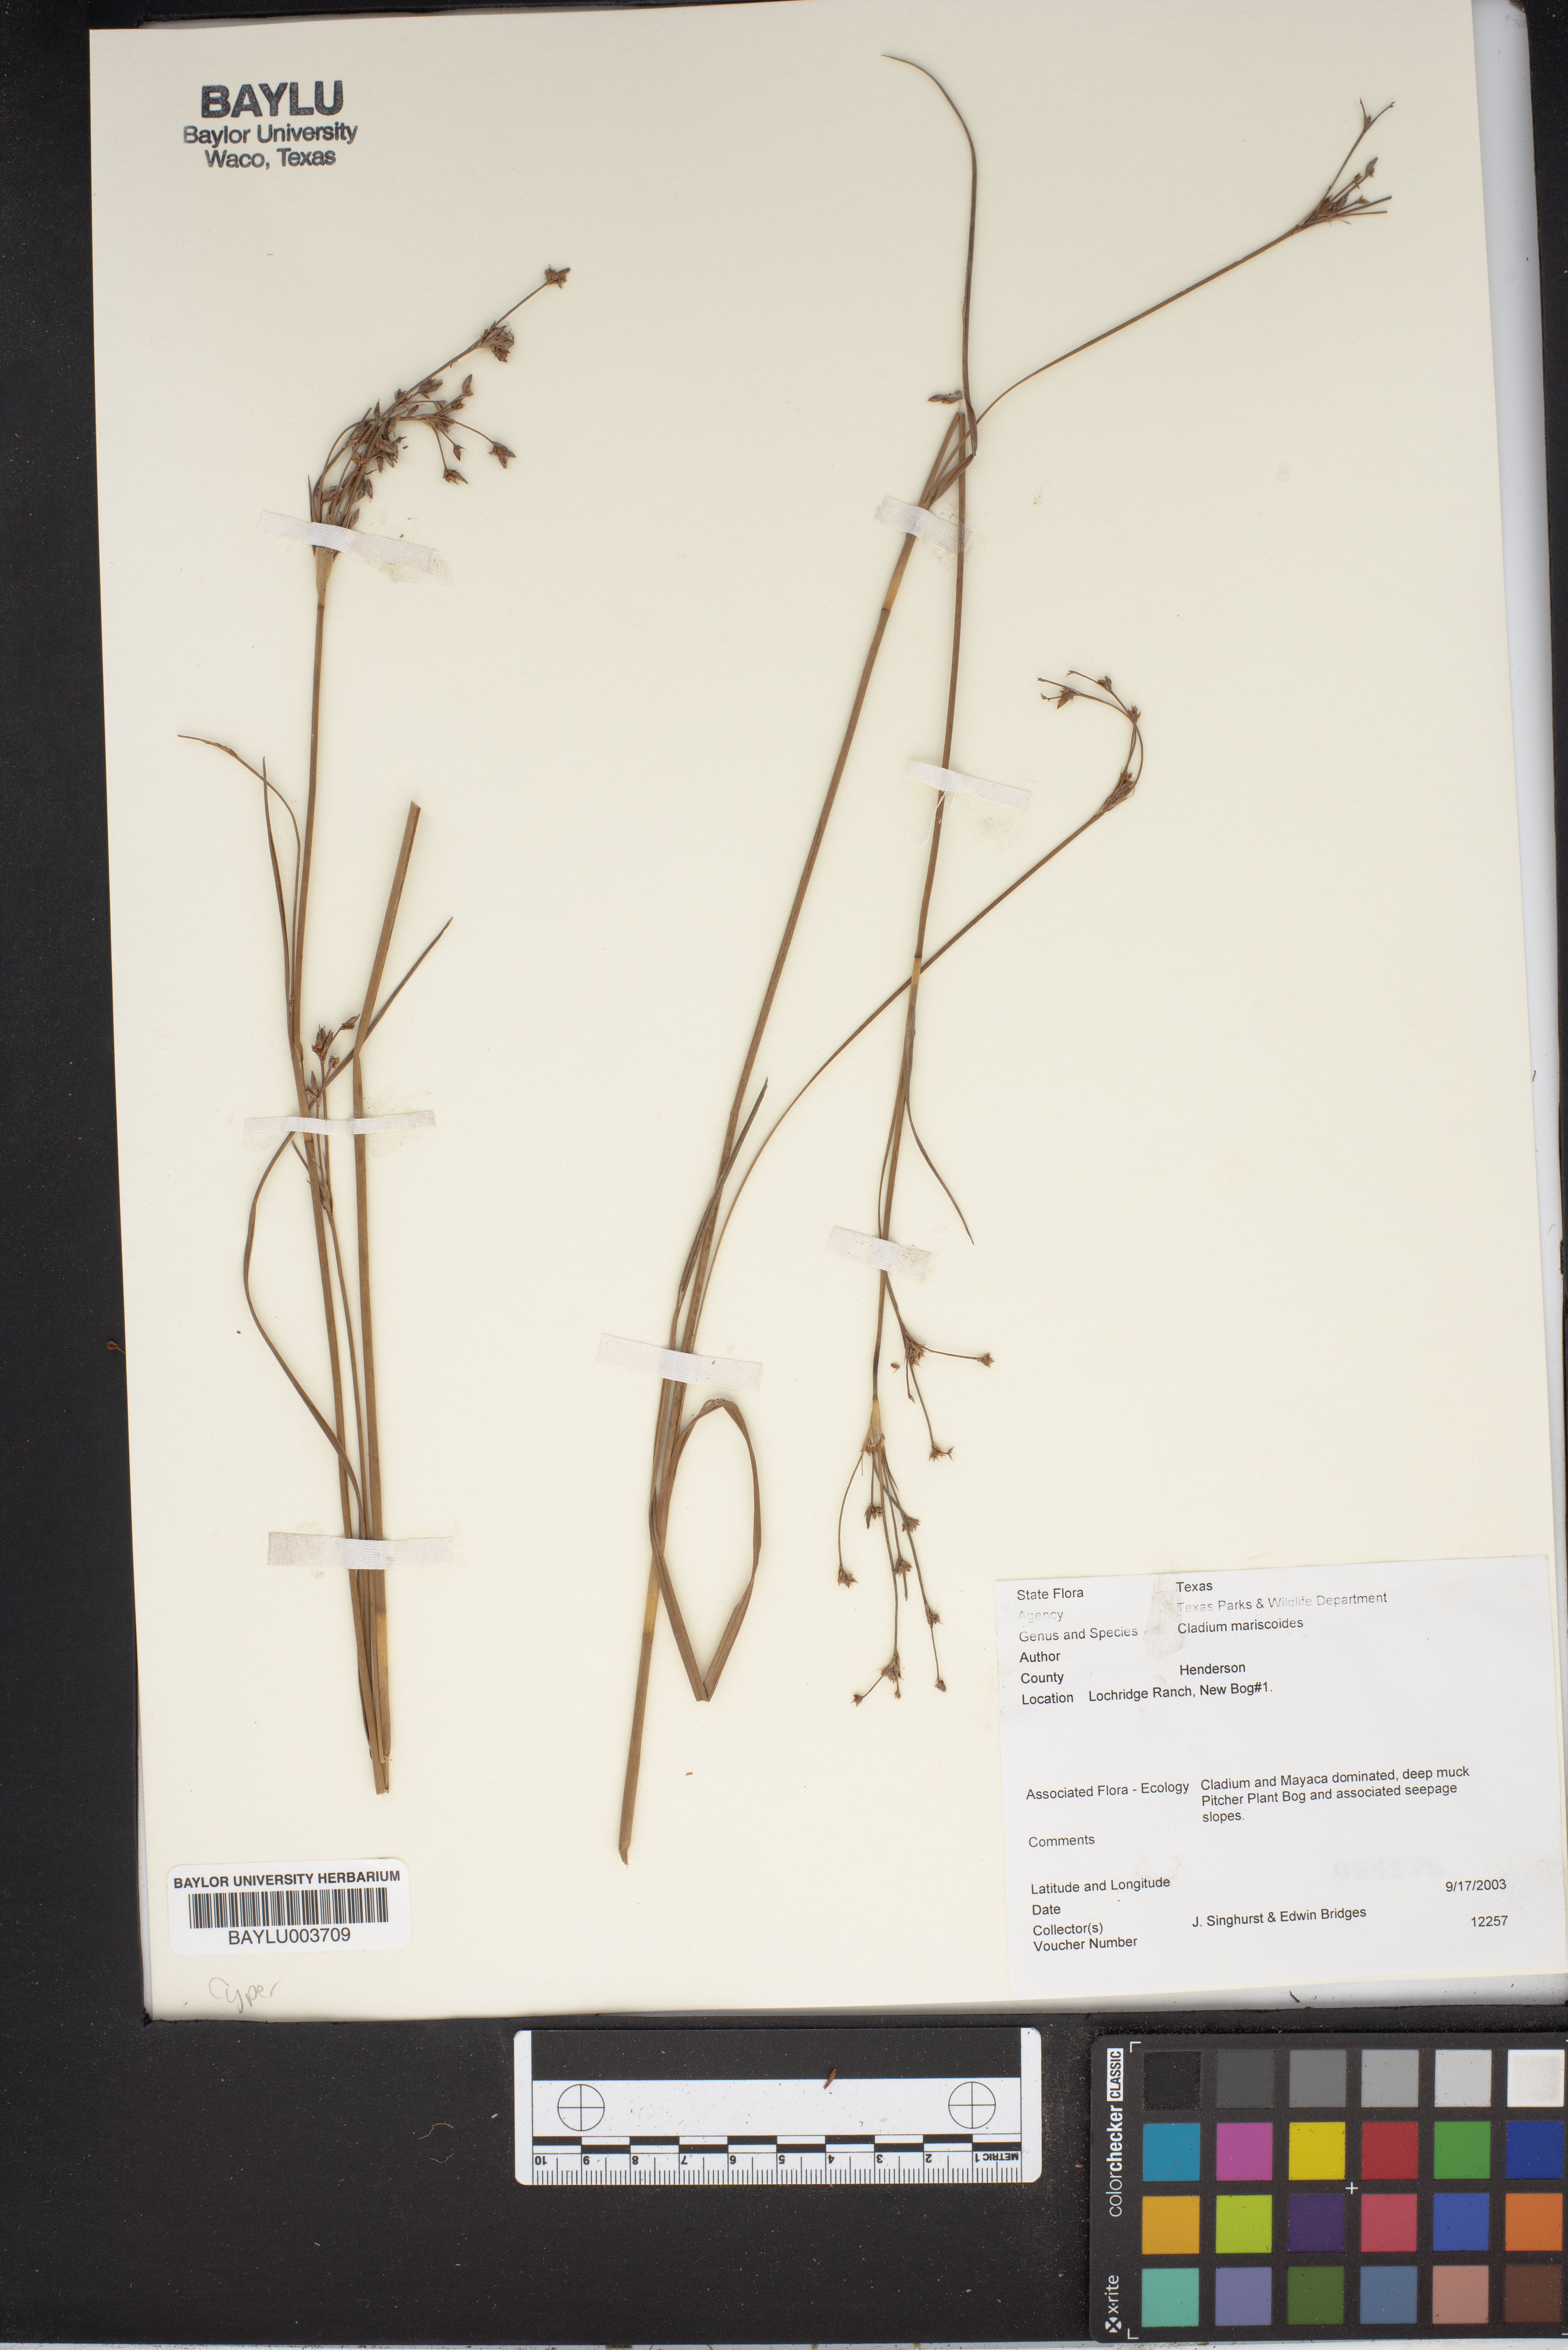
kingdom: Plantae
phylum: Tracheophyta
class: Liliopsida
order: Poales
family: Cyperaceae
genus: Cladium
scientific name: Cladium mariscoides
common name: Smooth sawgrass
